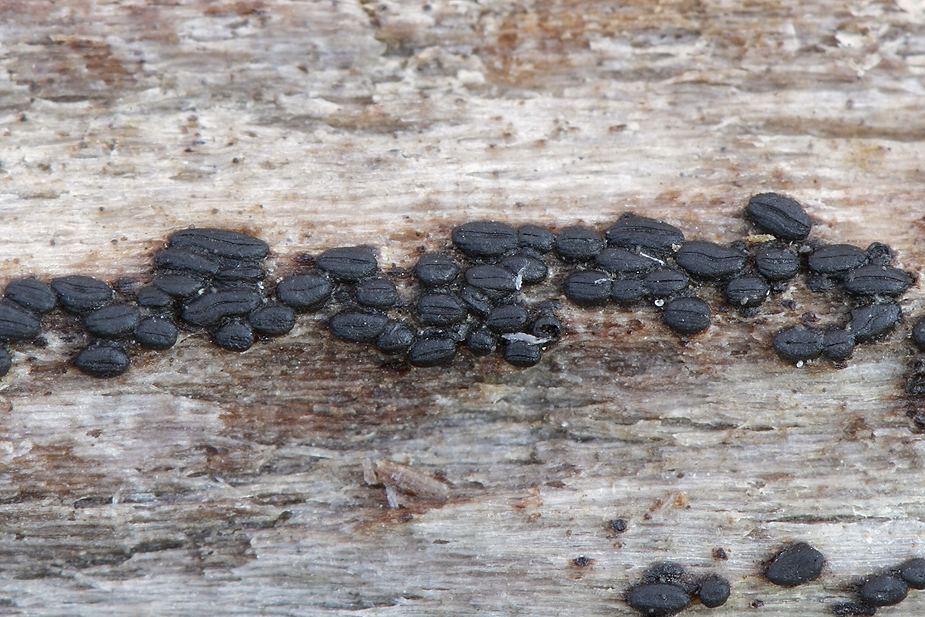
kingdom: Fungi
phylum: Ascomycota
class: Dothideomycetes
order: Hysteriales
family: Hysteriaceae
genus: Hysterium
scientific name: Hysterium acuminatum
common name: almindelig kulmund
